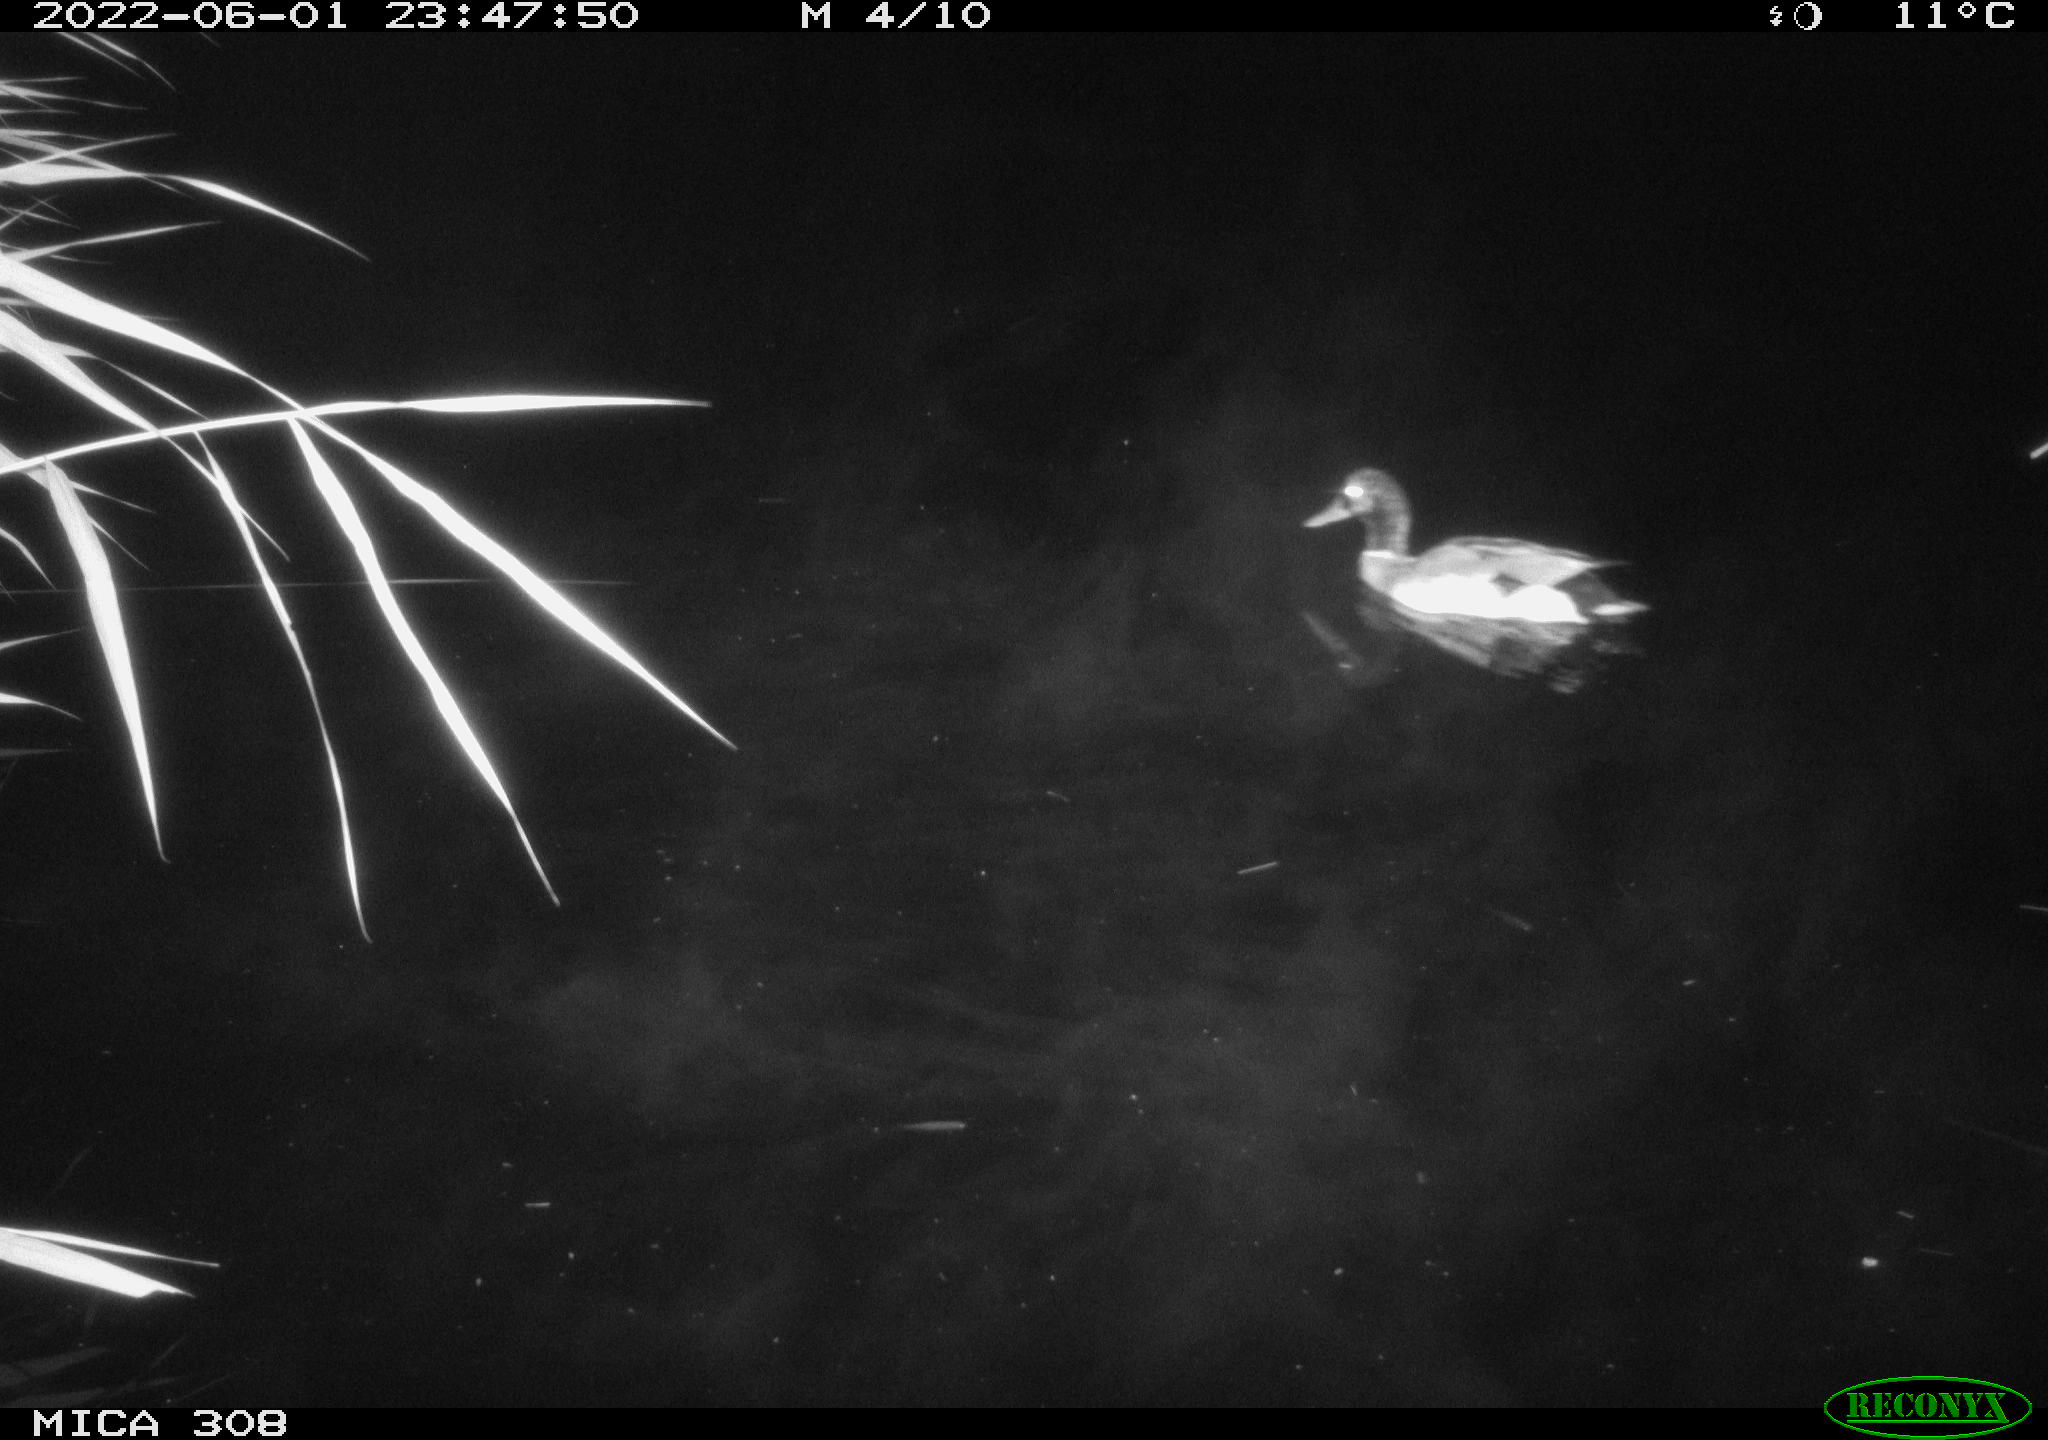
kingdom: Animalia
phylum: Chordata
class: Aves
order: Anseriformes
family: Anatidae
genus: Anas
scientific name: Anas platyrhynchos
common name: Mallard
